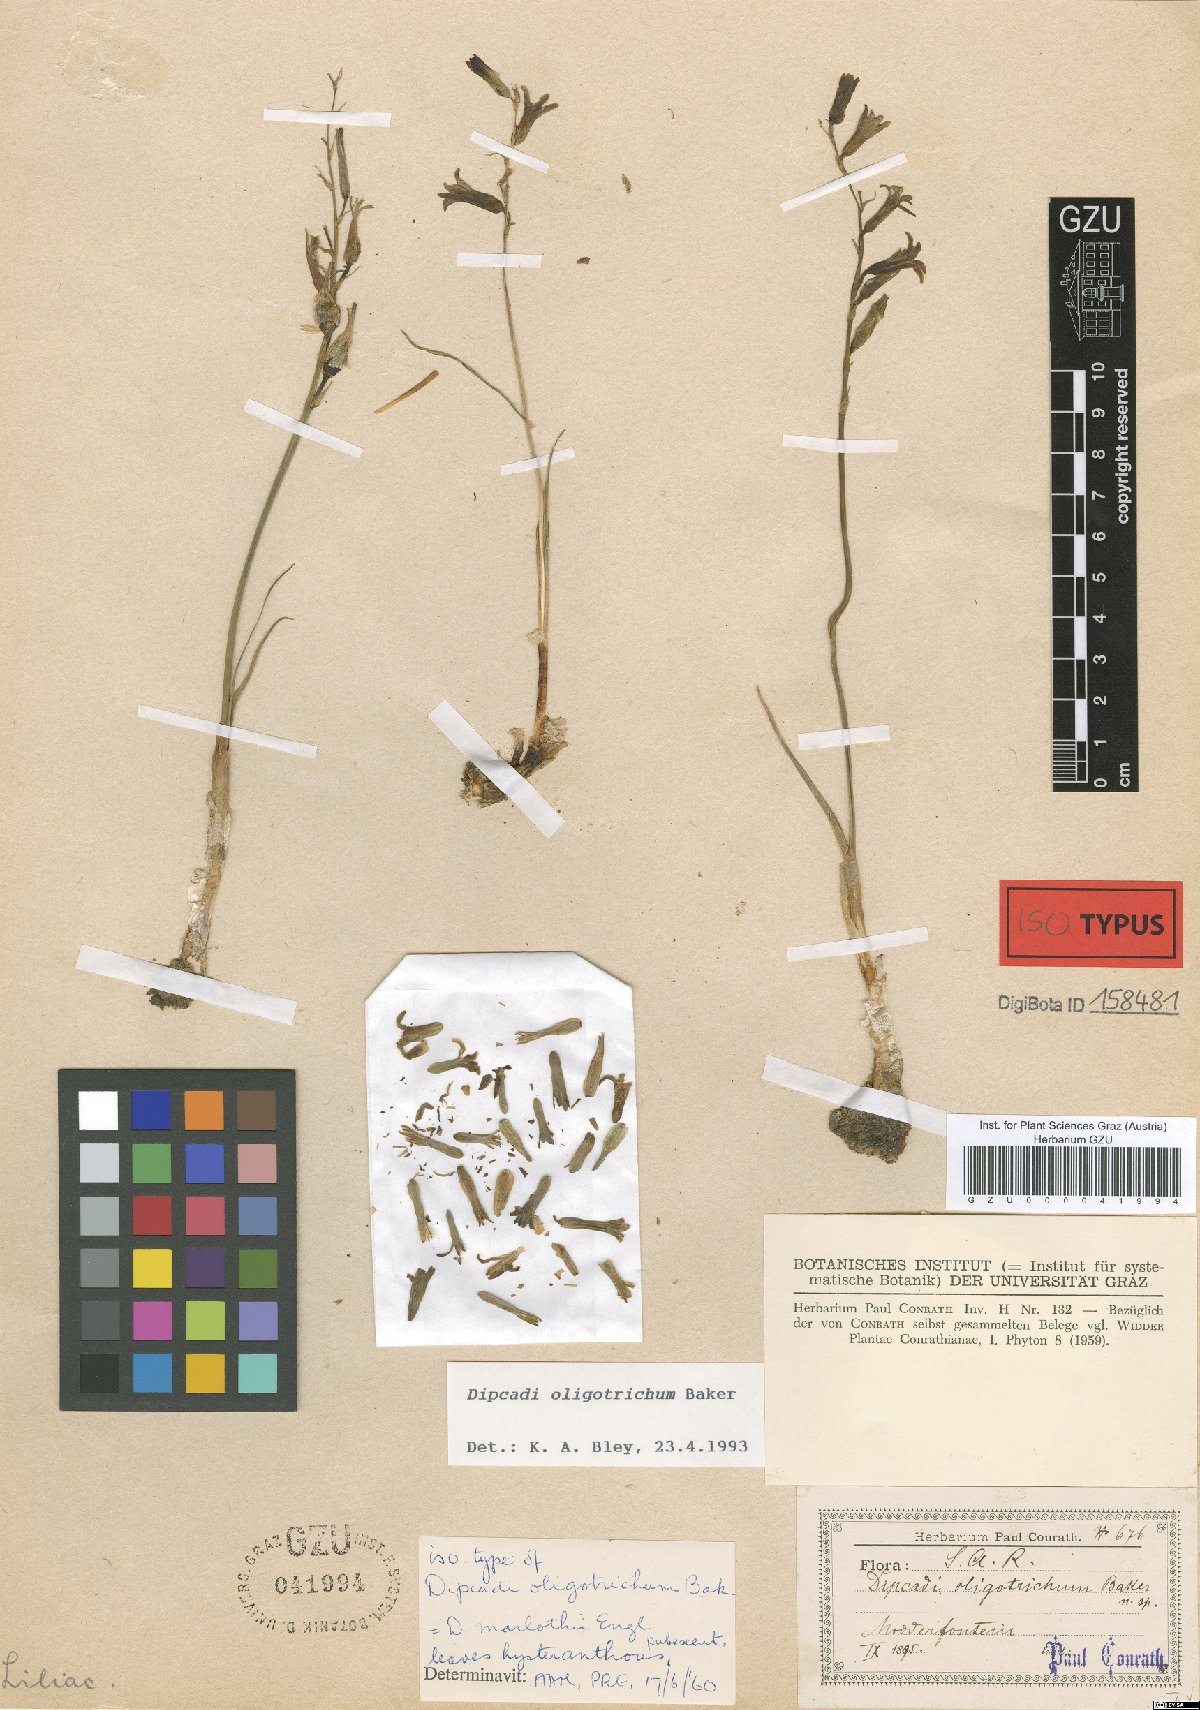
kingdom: Plantae
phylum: Tracheophyta
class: Liliopsida
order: Asparagales
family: Asparagaceae
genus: Dipcadi
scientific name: Dipcadi marlothii
